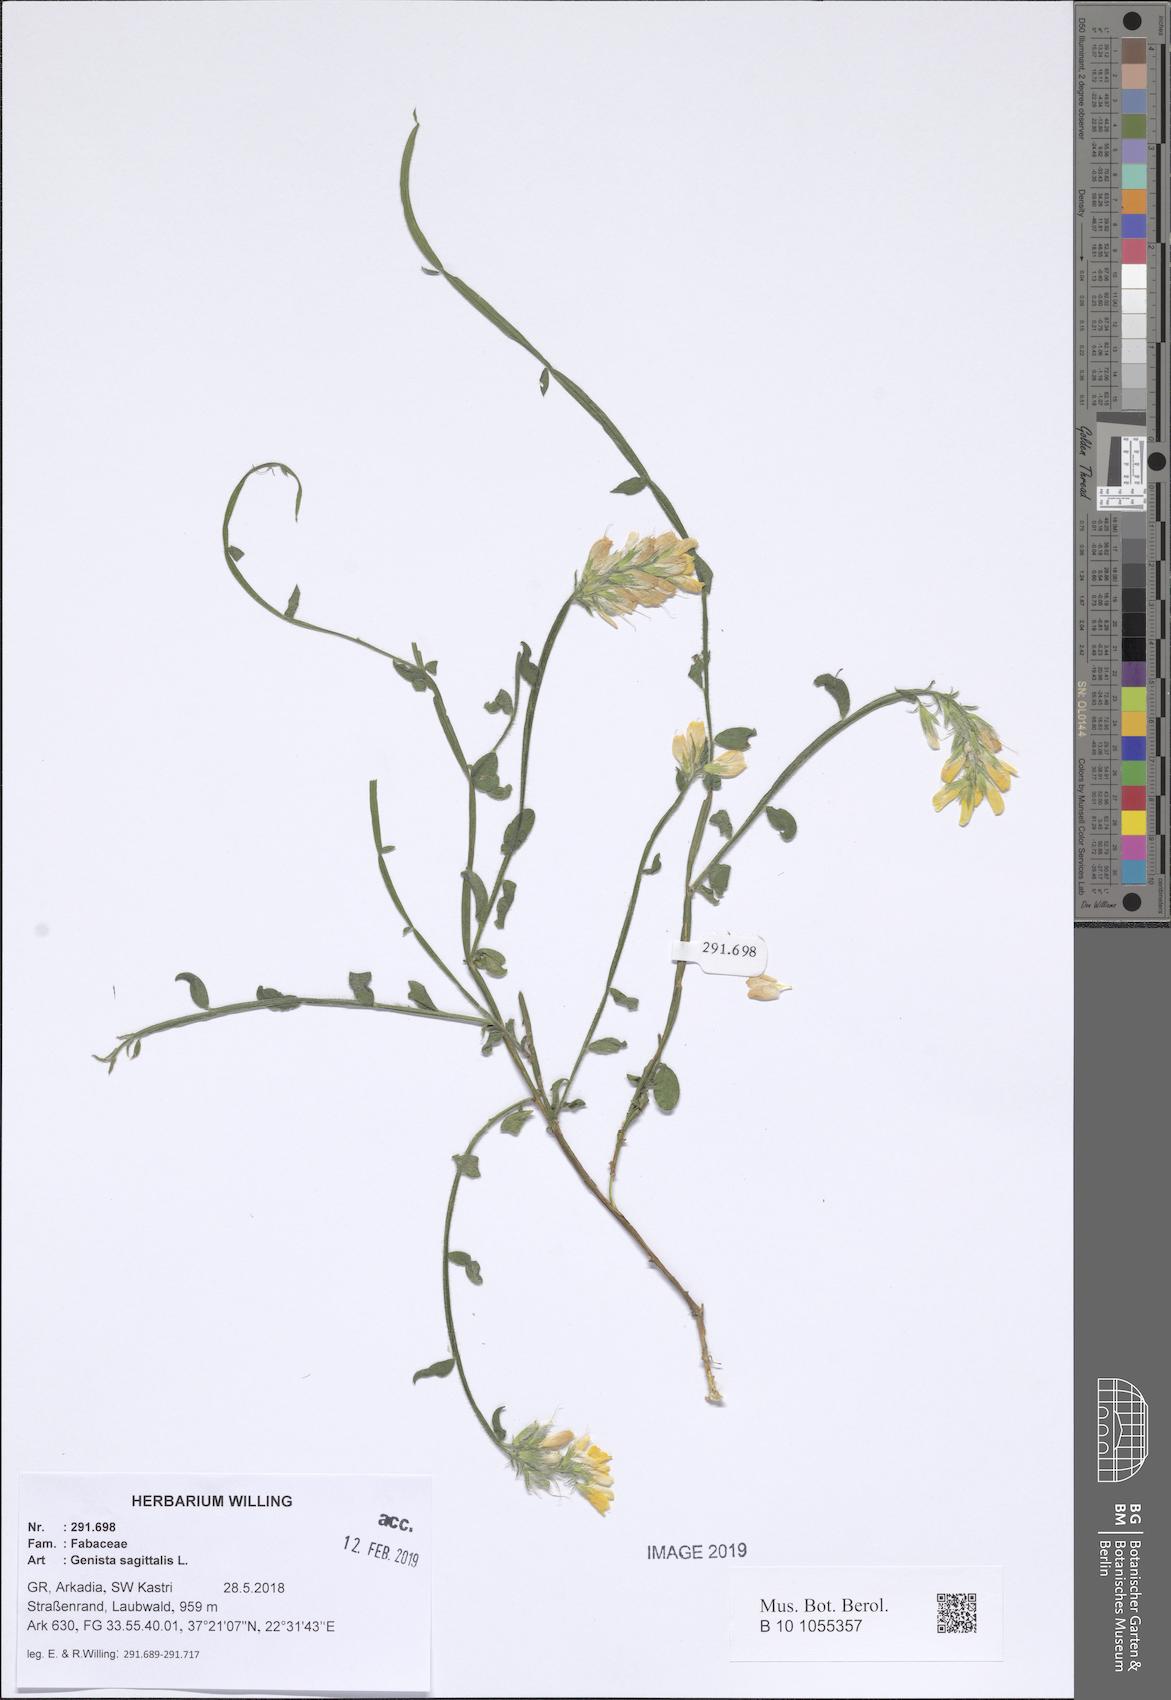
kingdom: Plantae
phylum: Tracheophyta
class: Magnoliopsida
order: Fabales
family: Fabaceae
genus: Genista
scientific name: Genista sagittalis
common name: Winged greenweed
